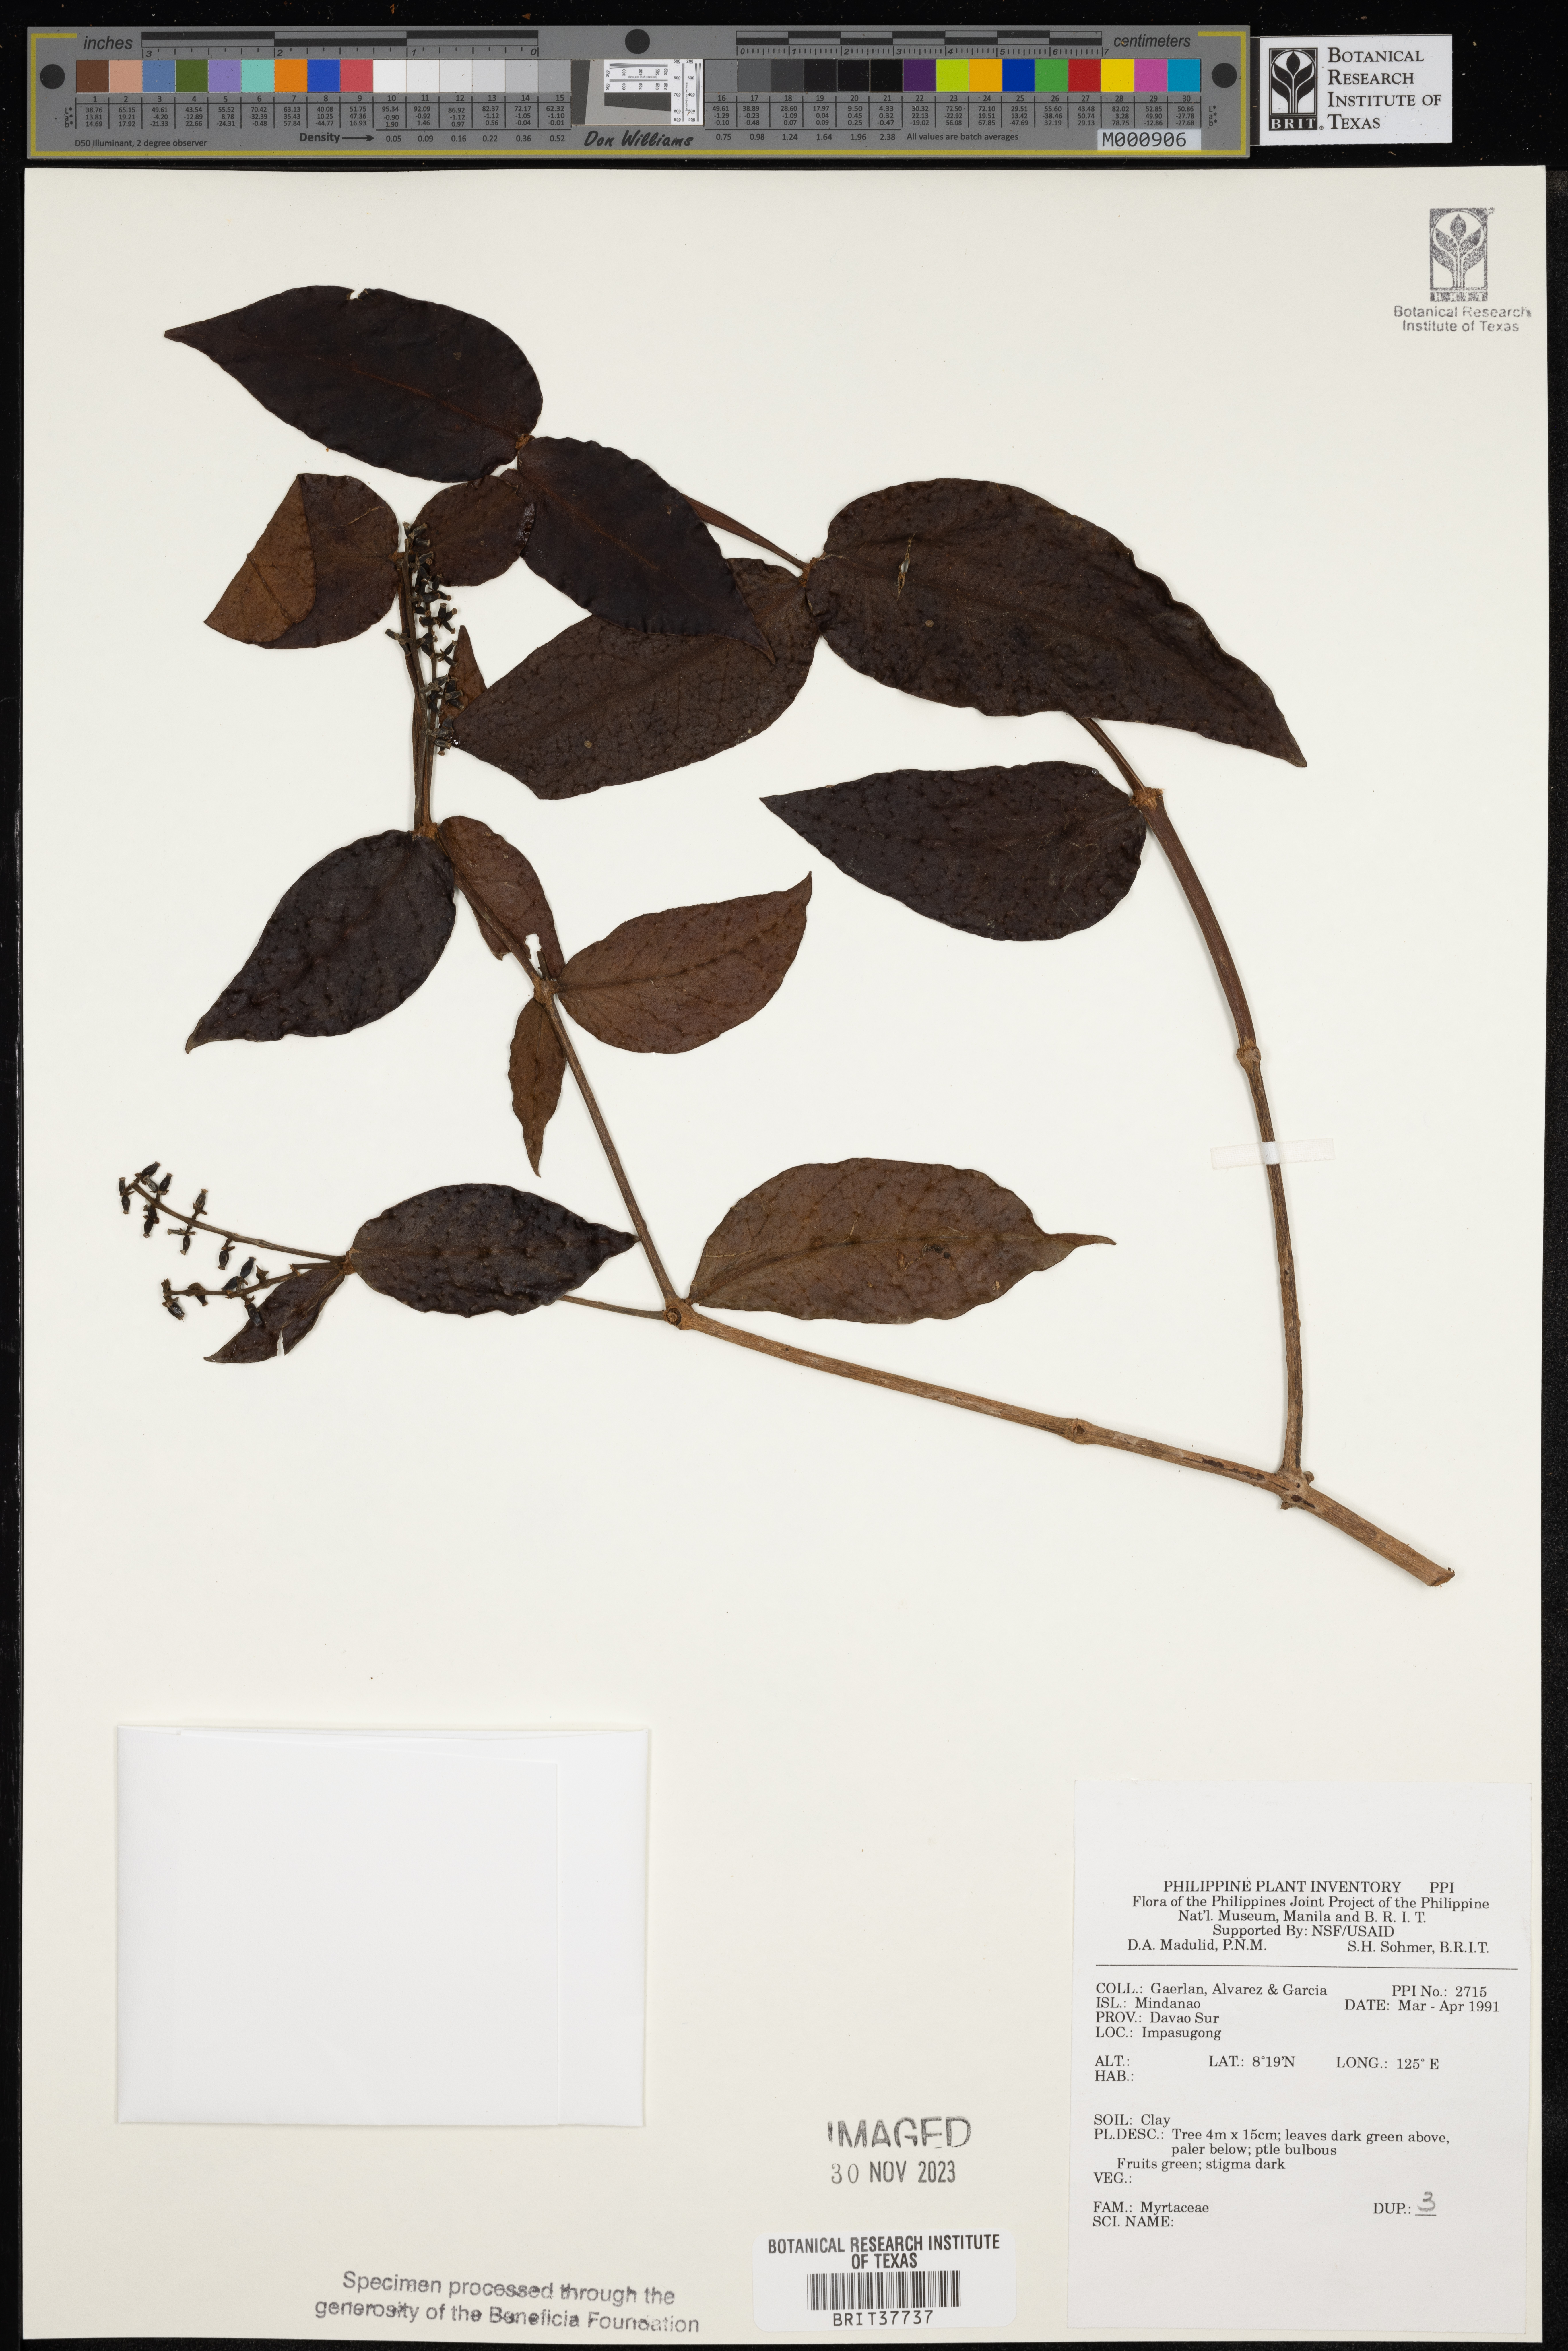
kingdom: Plantae
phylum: Tracheophyta
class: Magnoliopsida
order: Myrtales
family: Myrtaceae
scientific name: Myrtaceae
